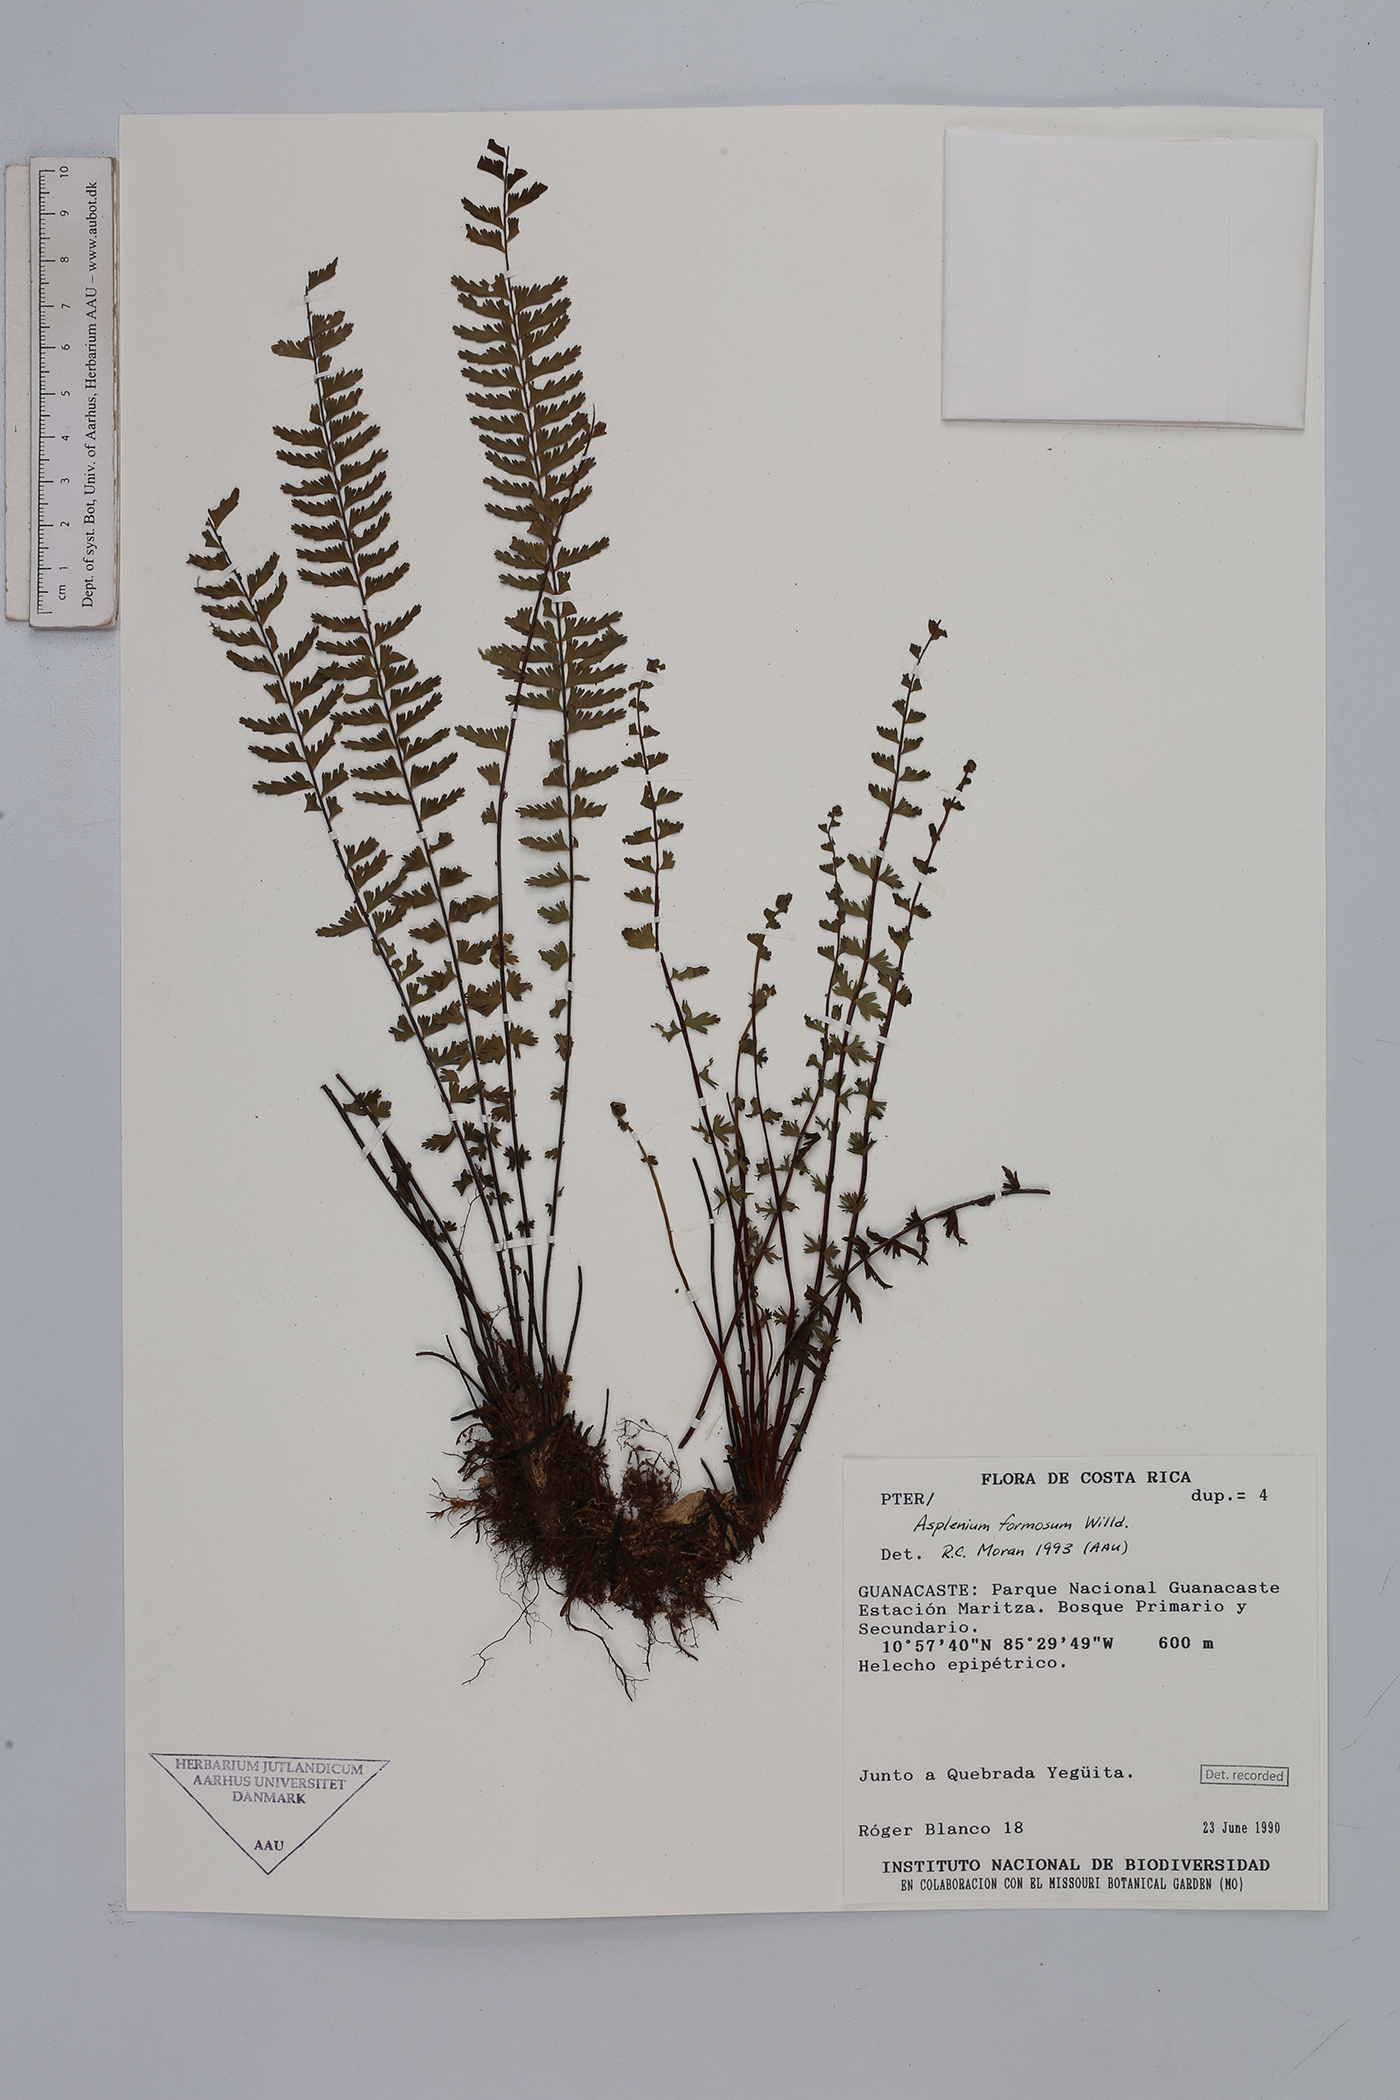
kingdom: Plantae
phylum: Tracheophyta
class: Polypodiopsida
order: Polypodiales
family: Aspleniaceae
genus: Asplenium
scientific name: Asplenium formosum
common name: Showy spleenwort
